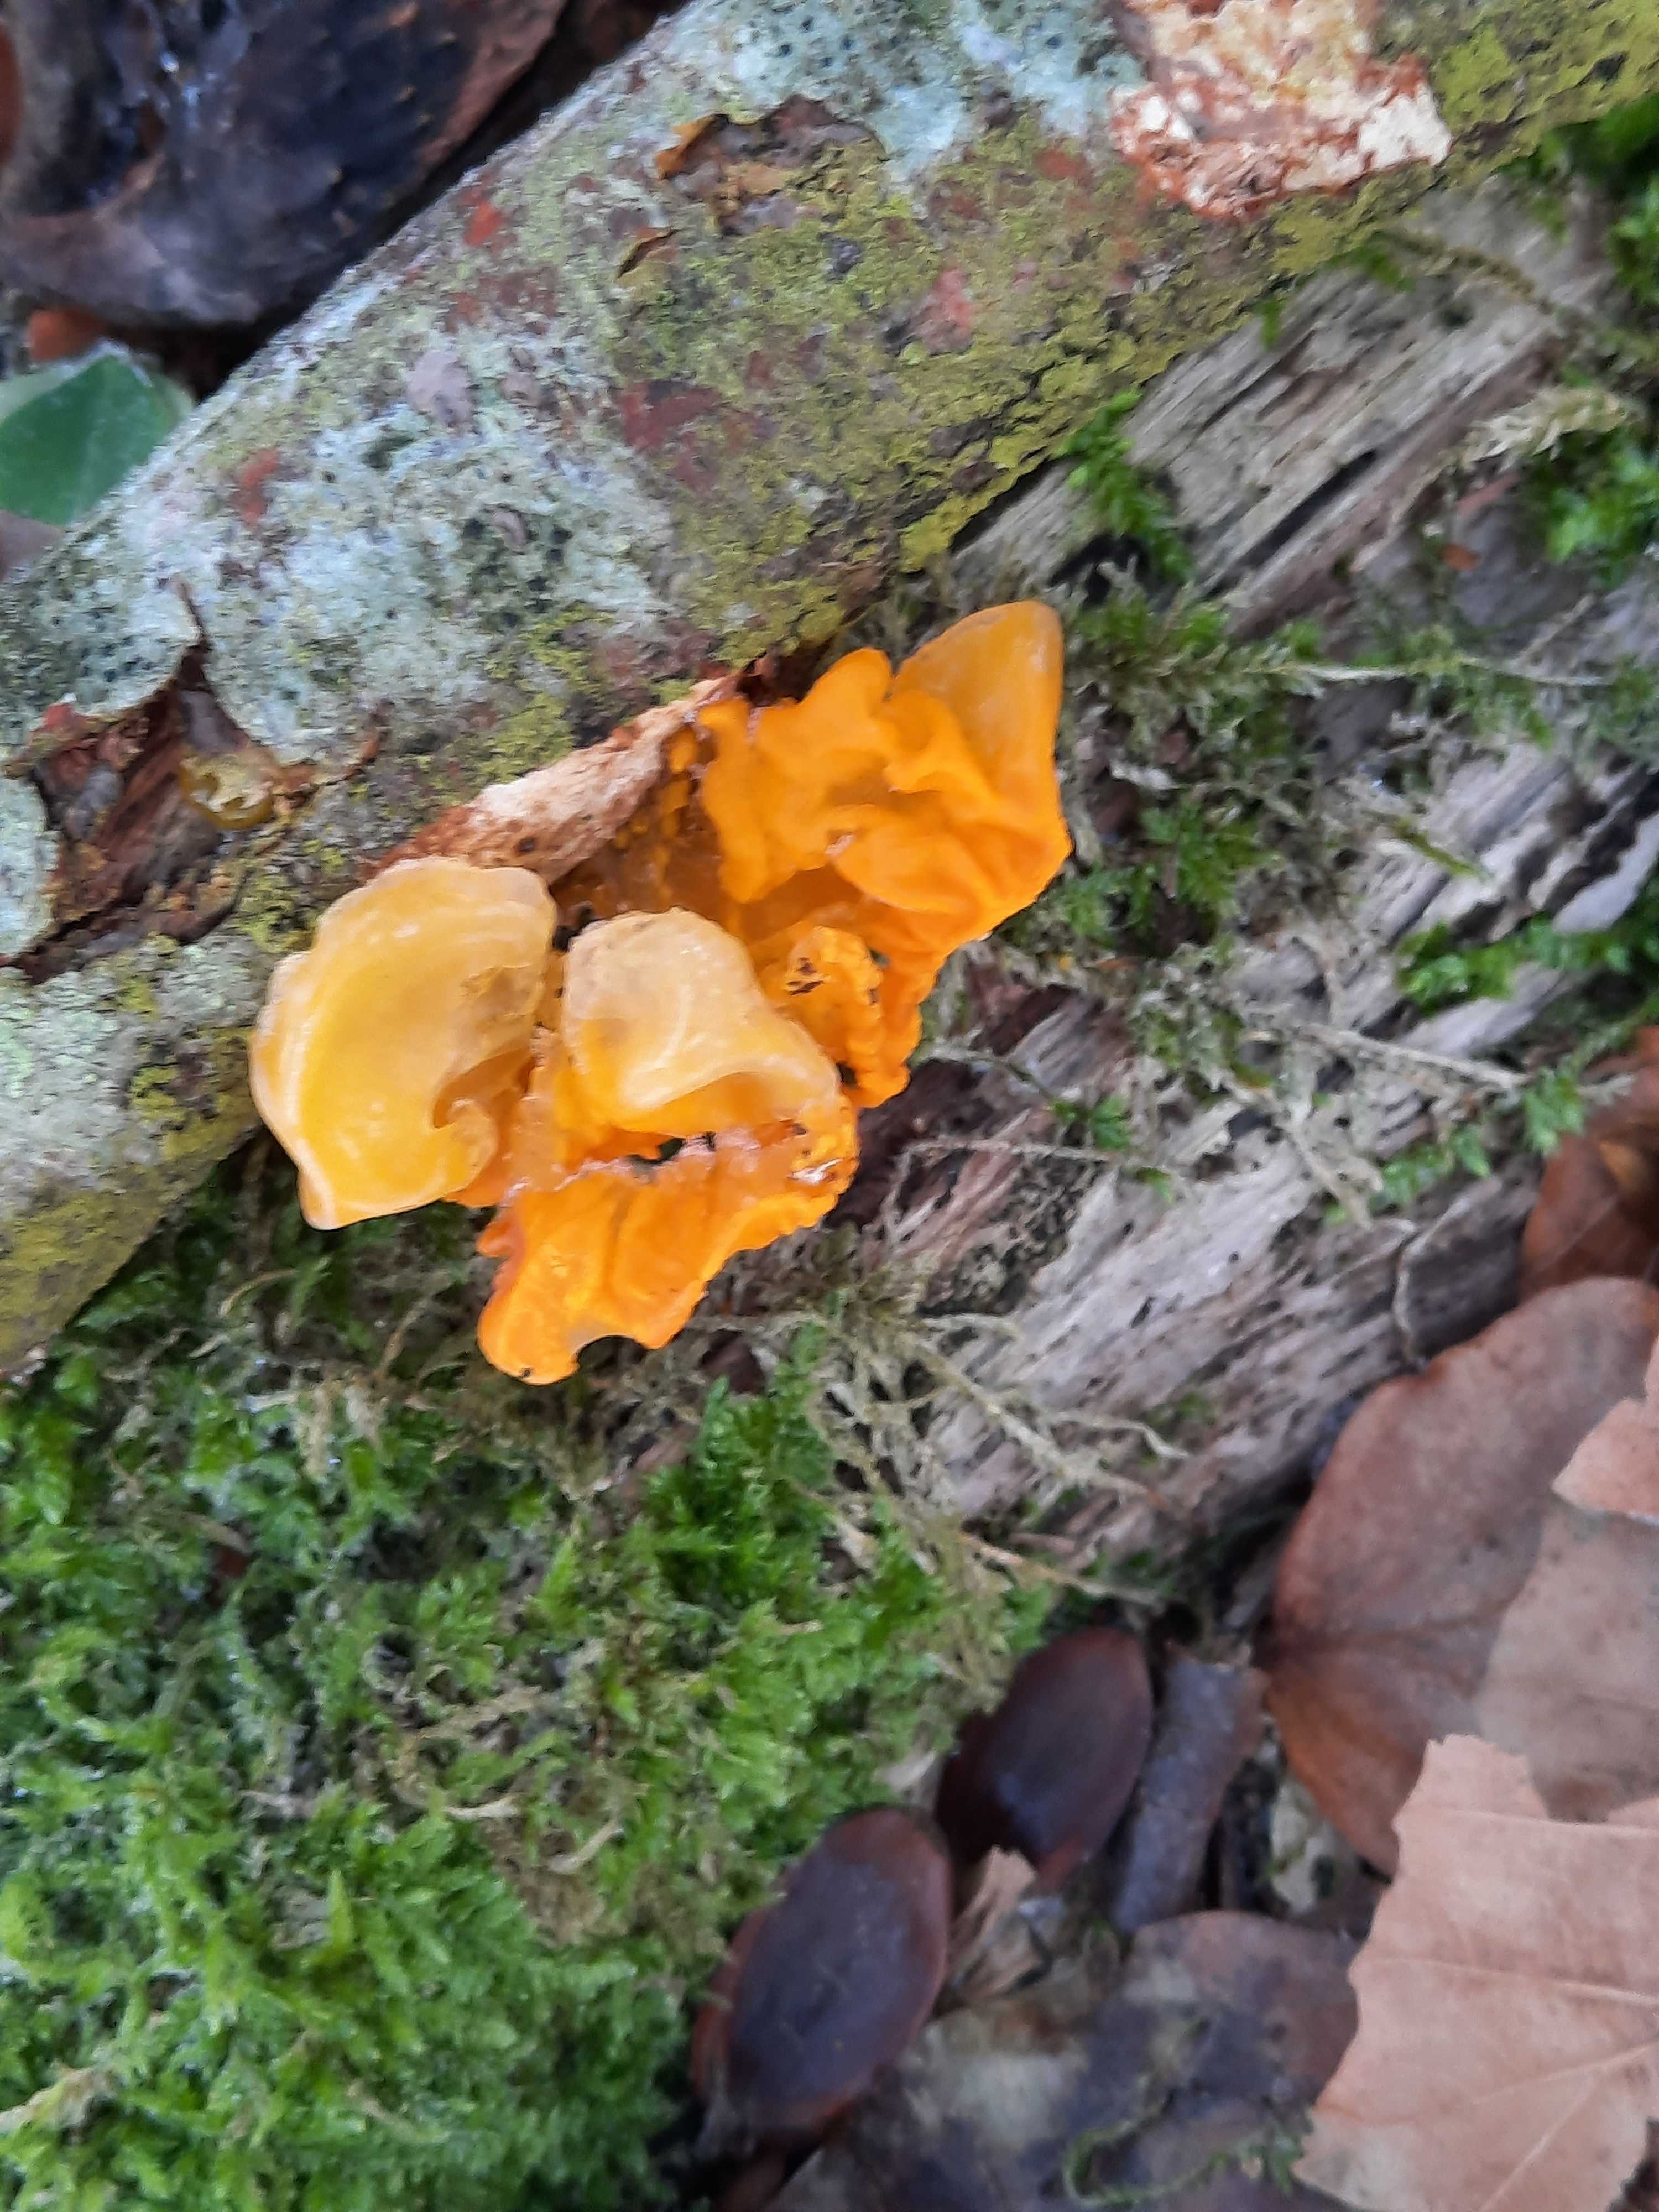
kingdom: Fungi
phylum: Basidiomycota
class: Tremellomycetes
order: Tremellales
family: Tremellaceae
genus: Tremella
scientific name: Tremella mesenterica
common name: gul bævresvamp
